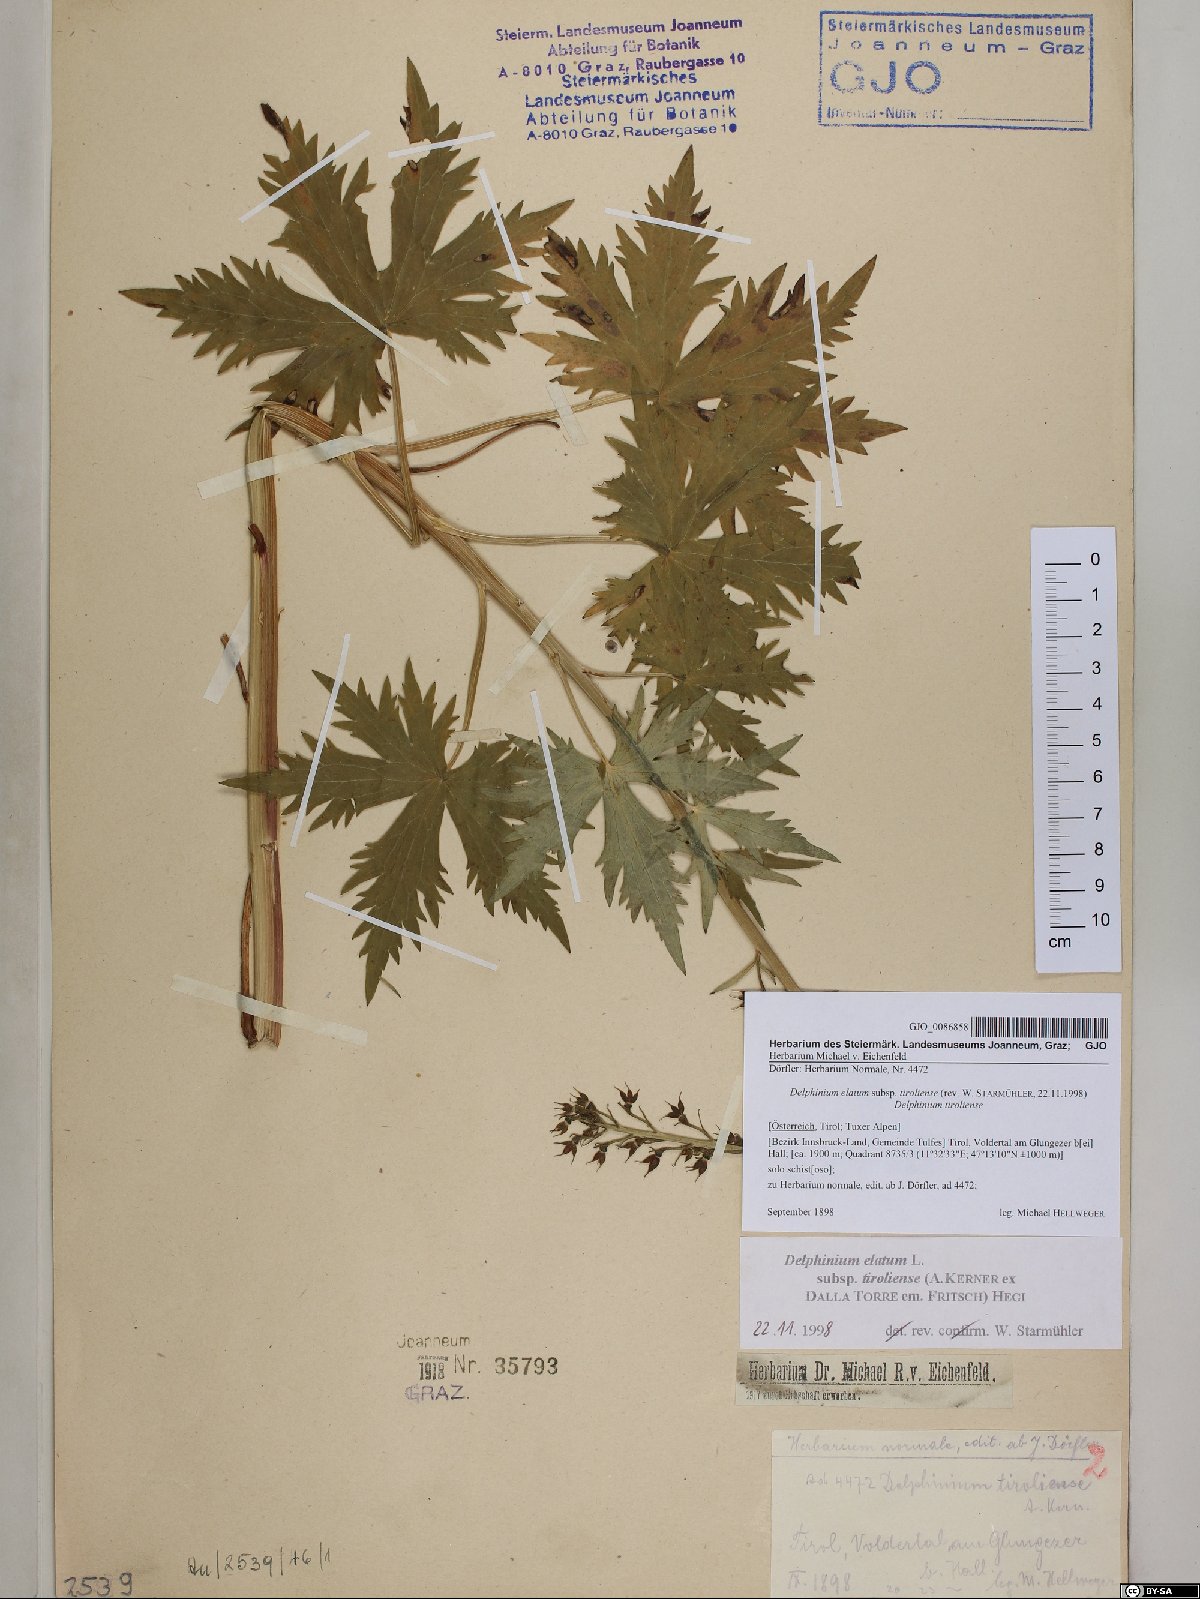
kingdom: Plantae
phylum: Tracheophyta
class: Magnoliopsida
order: Ranunculales
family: Ranunculaceae
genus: Delphinium
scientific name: Delphinium elatum
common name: Candle larkspur
